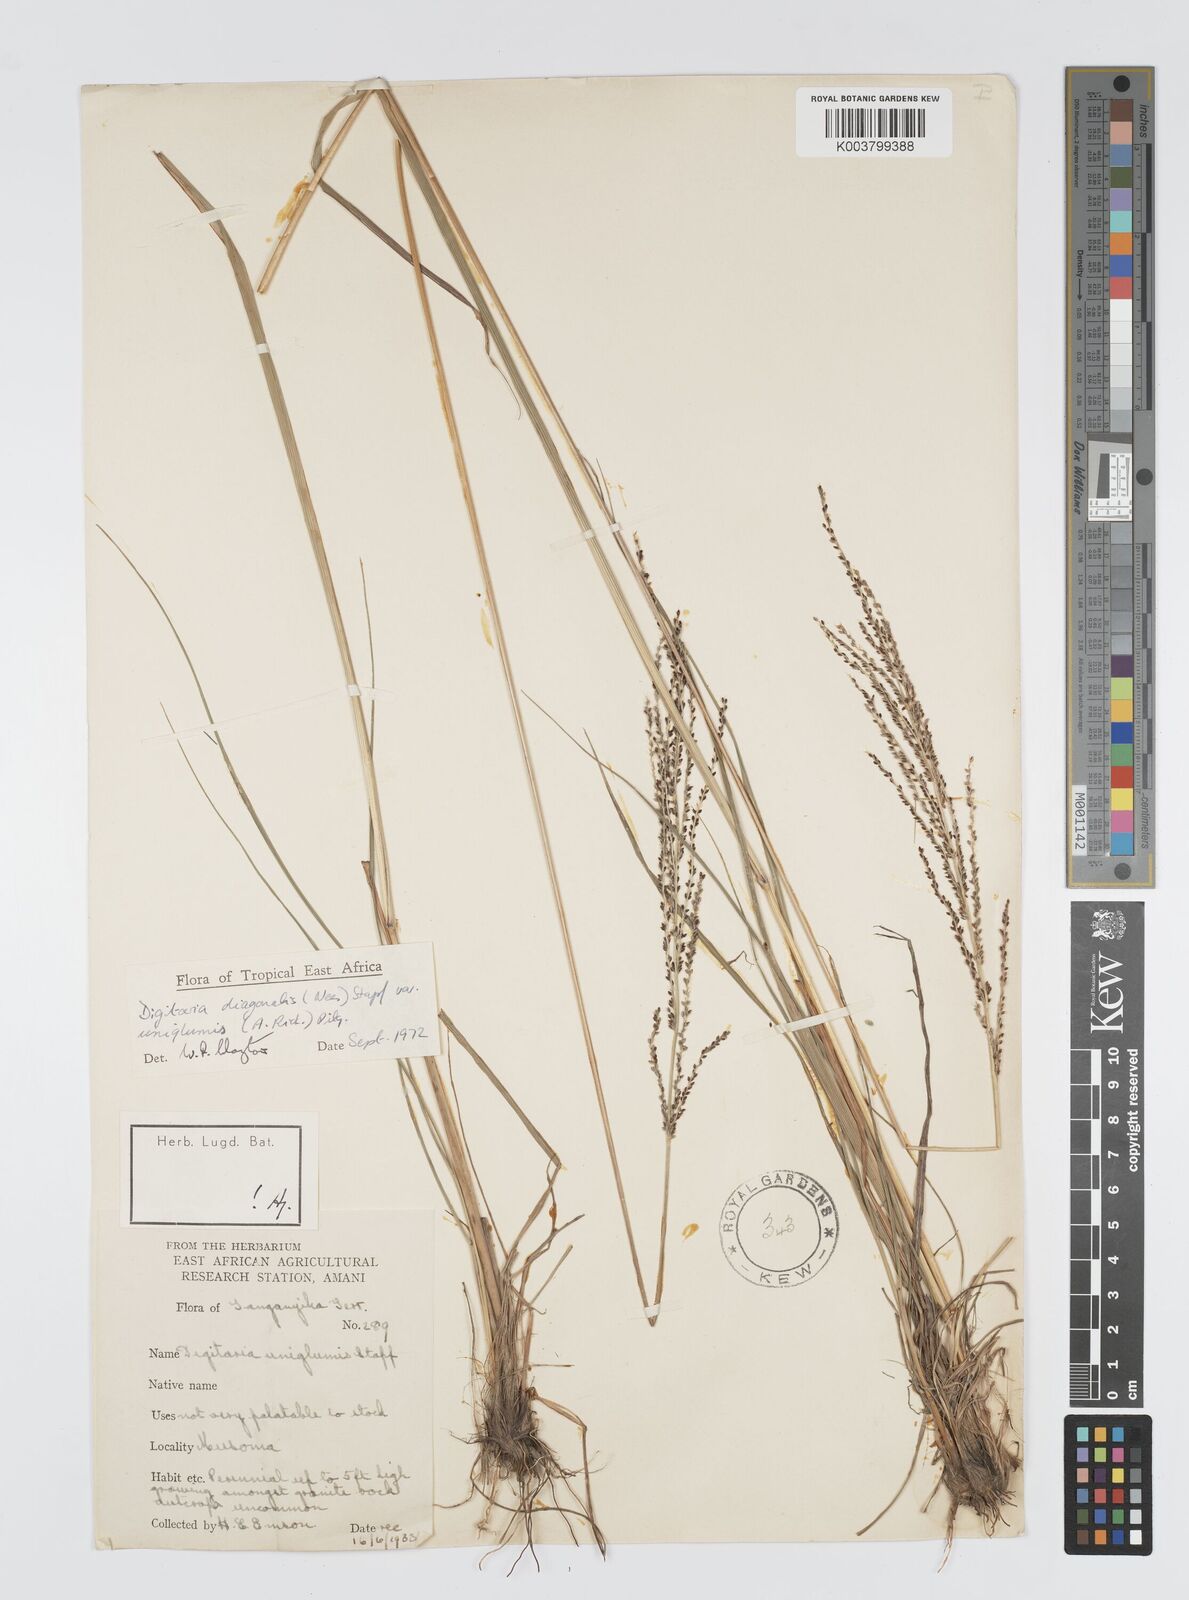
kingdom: Plantae
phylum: Tracheophyta
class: Liliopsida
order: Poales
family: Poaceae
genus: Digitaria
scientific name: Digitaria diagonalis
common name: Brown-seed finger grass
